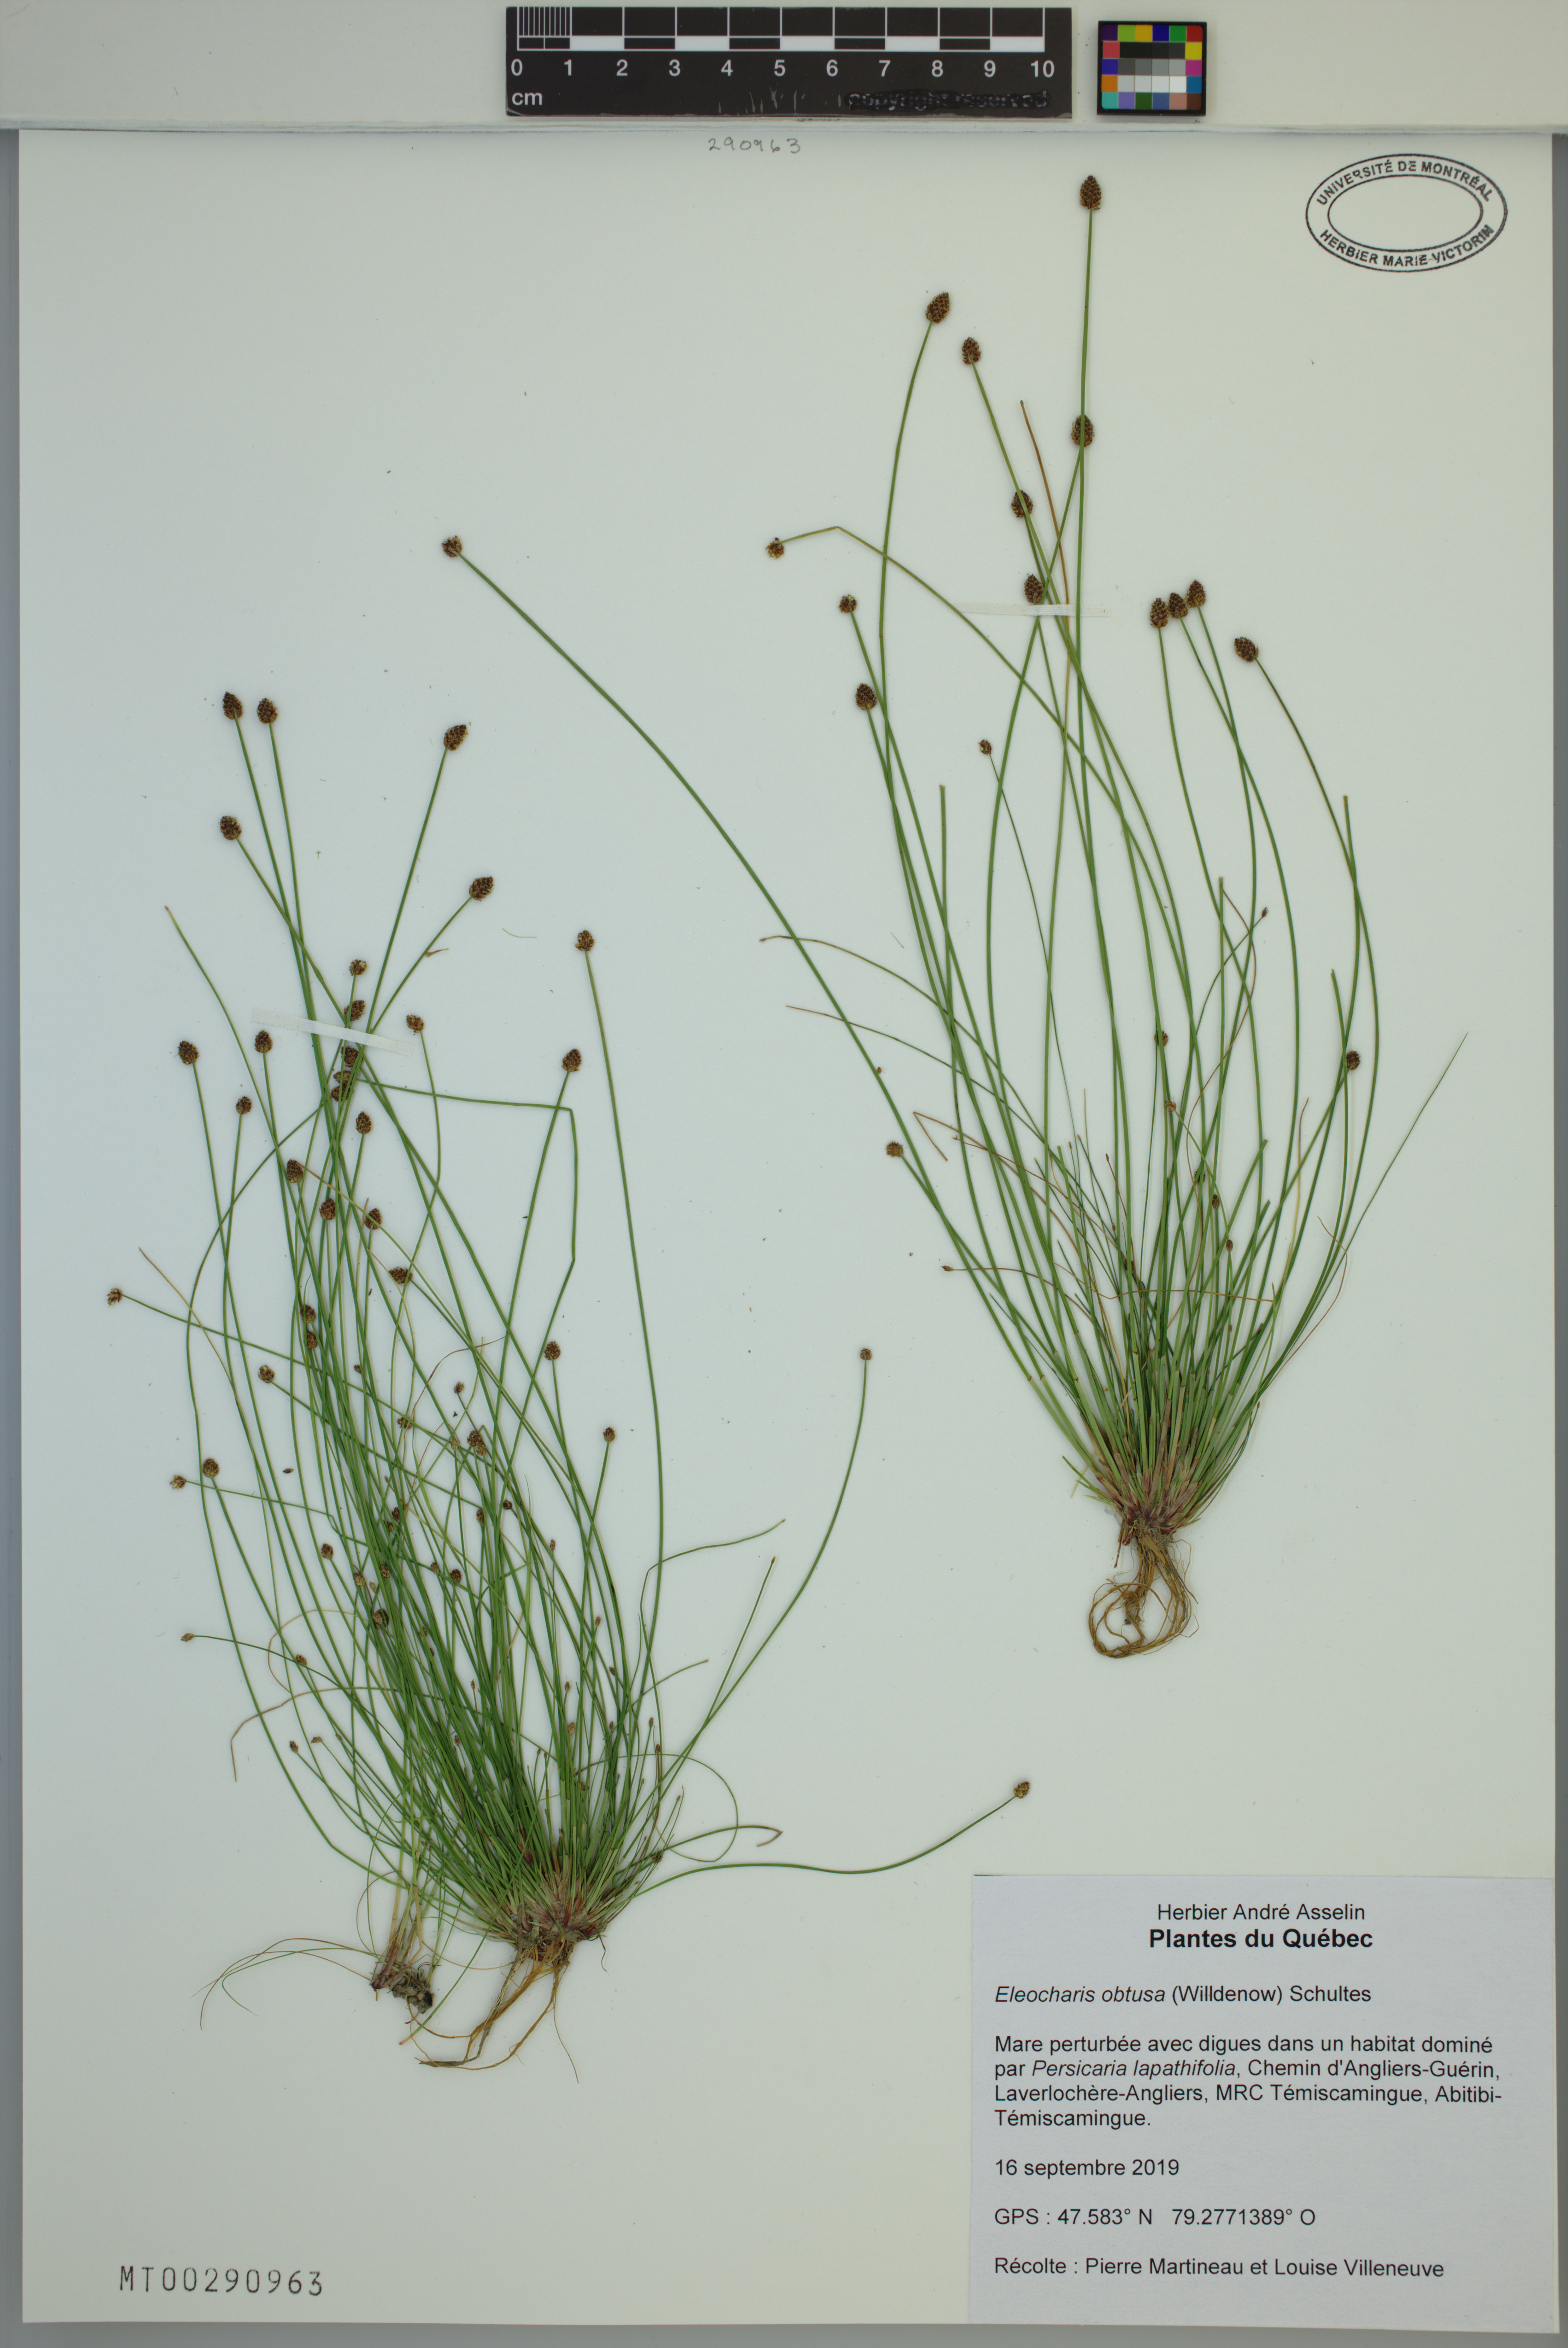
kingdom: Plantae
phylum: Tracheophyta
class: Liliopsida
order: Poales
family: Cyperaceae
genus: Eleocharis
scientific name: Eleocharis obtusa
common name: Blunt spikerush
